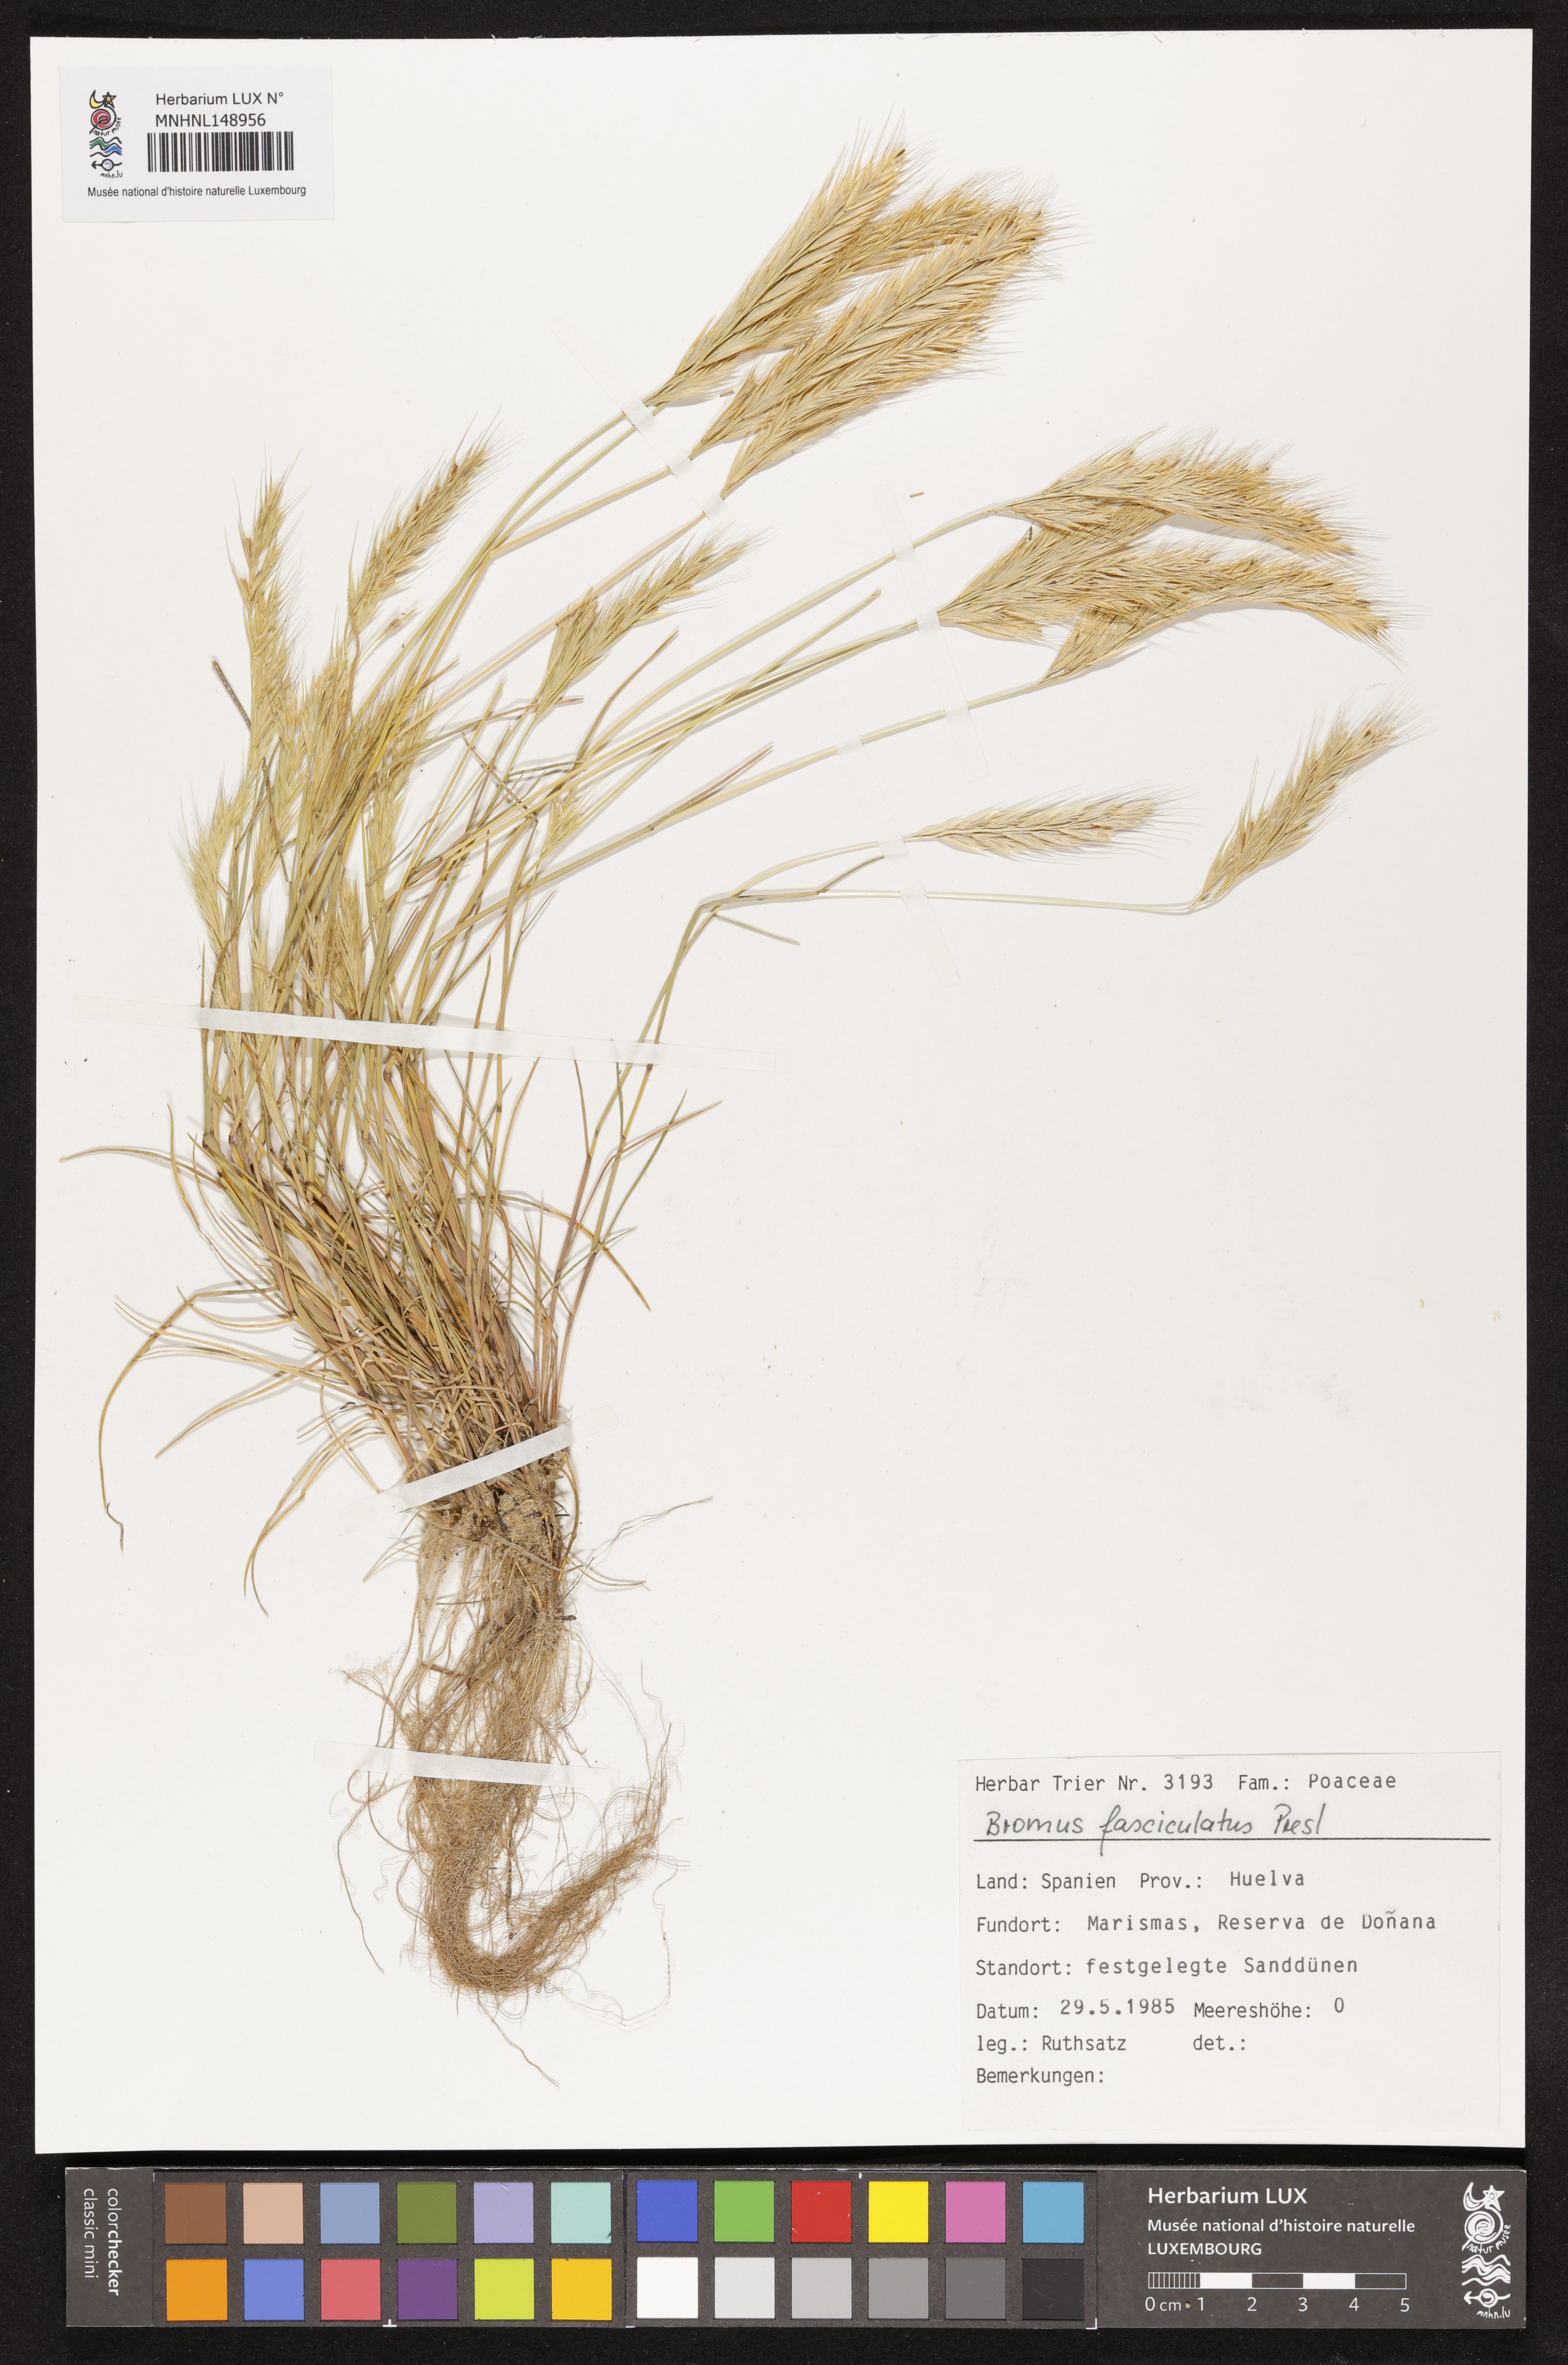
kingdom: Plantae
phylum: Tracheophyta
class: Liliopsida
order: Poales
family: Poaceae
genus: Bromus
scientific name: Bromus fasciculatus
